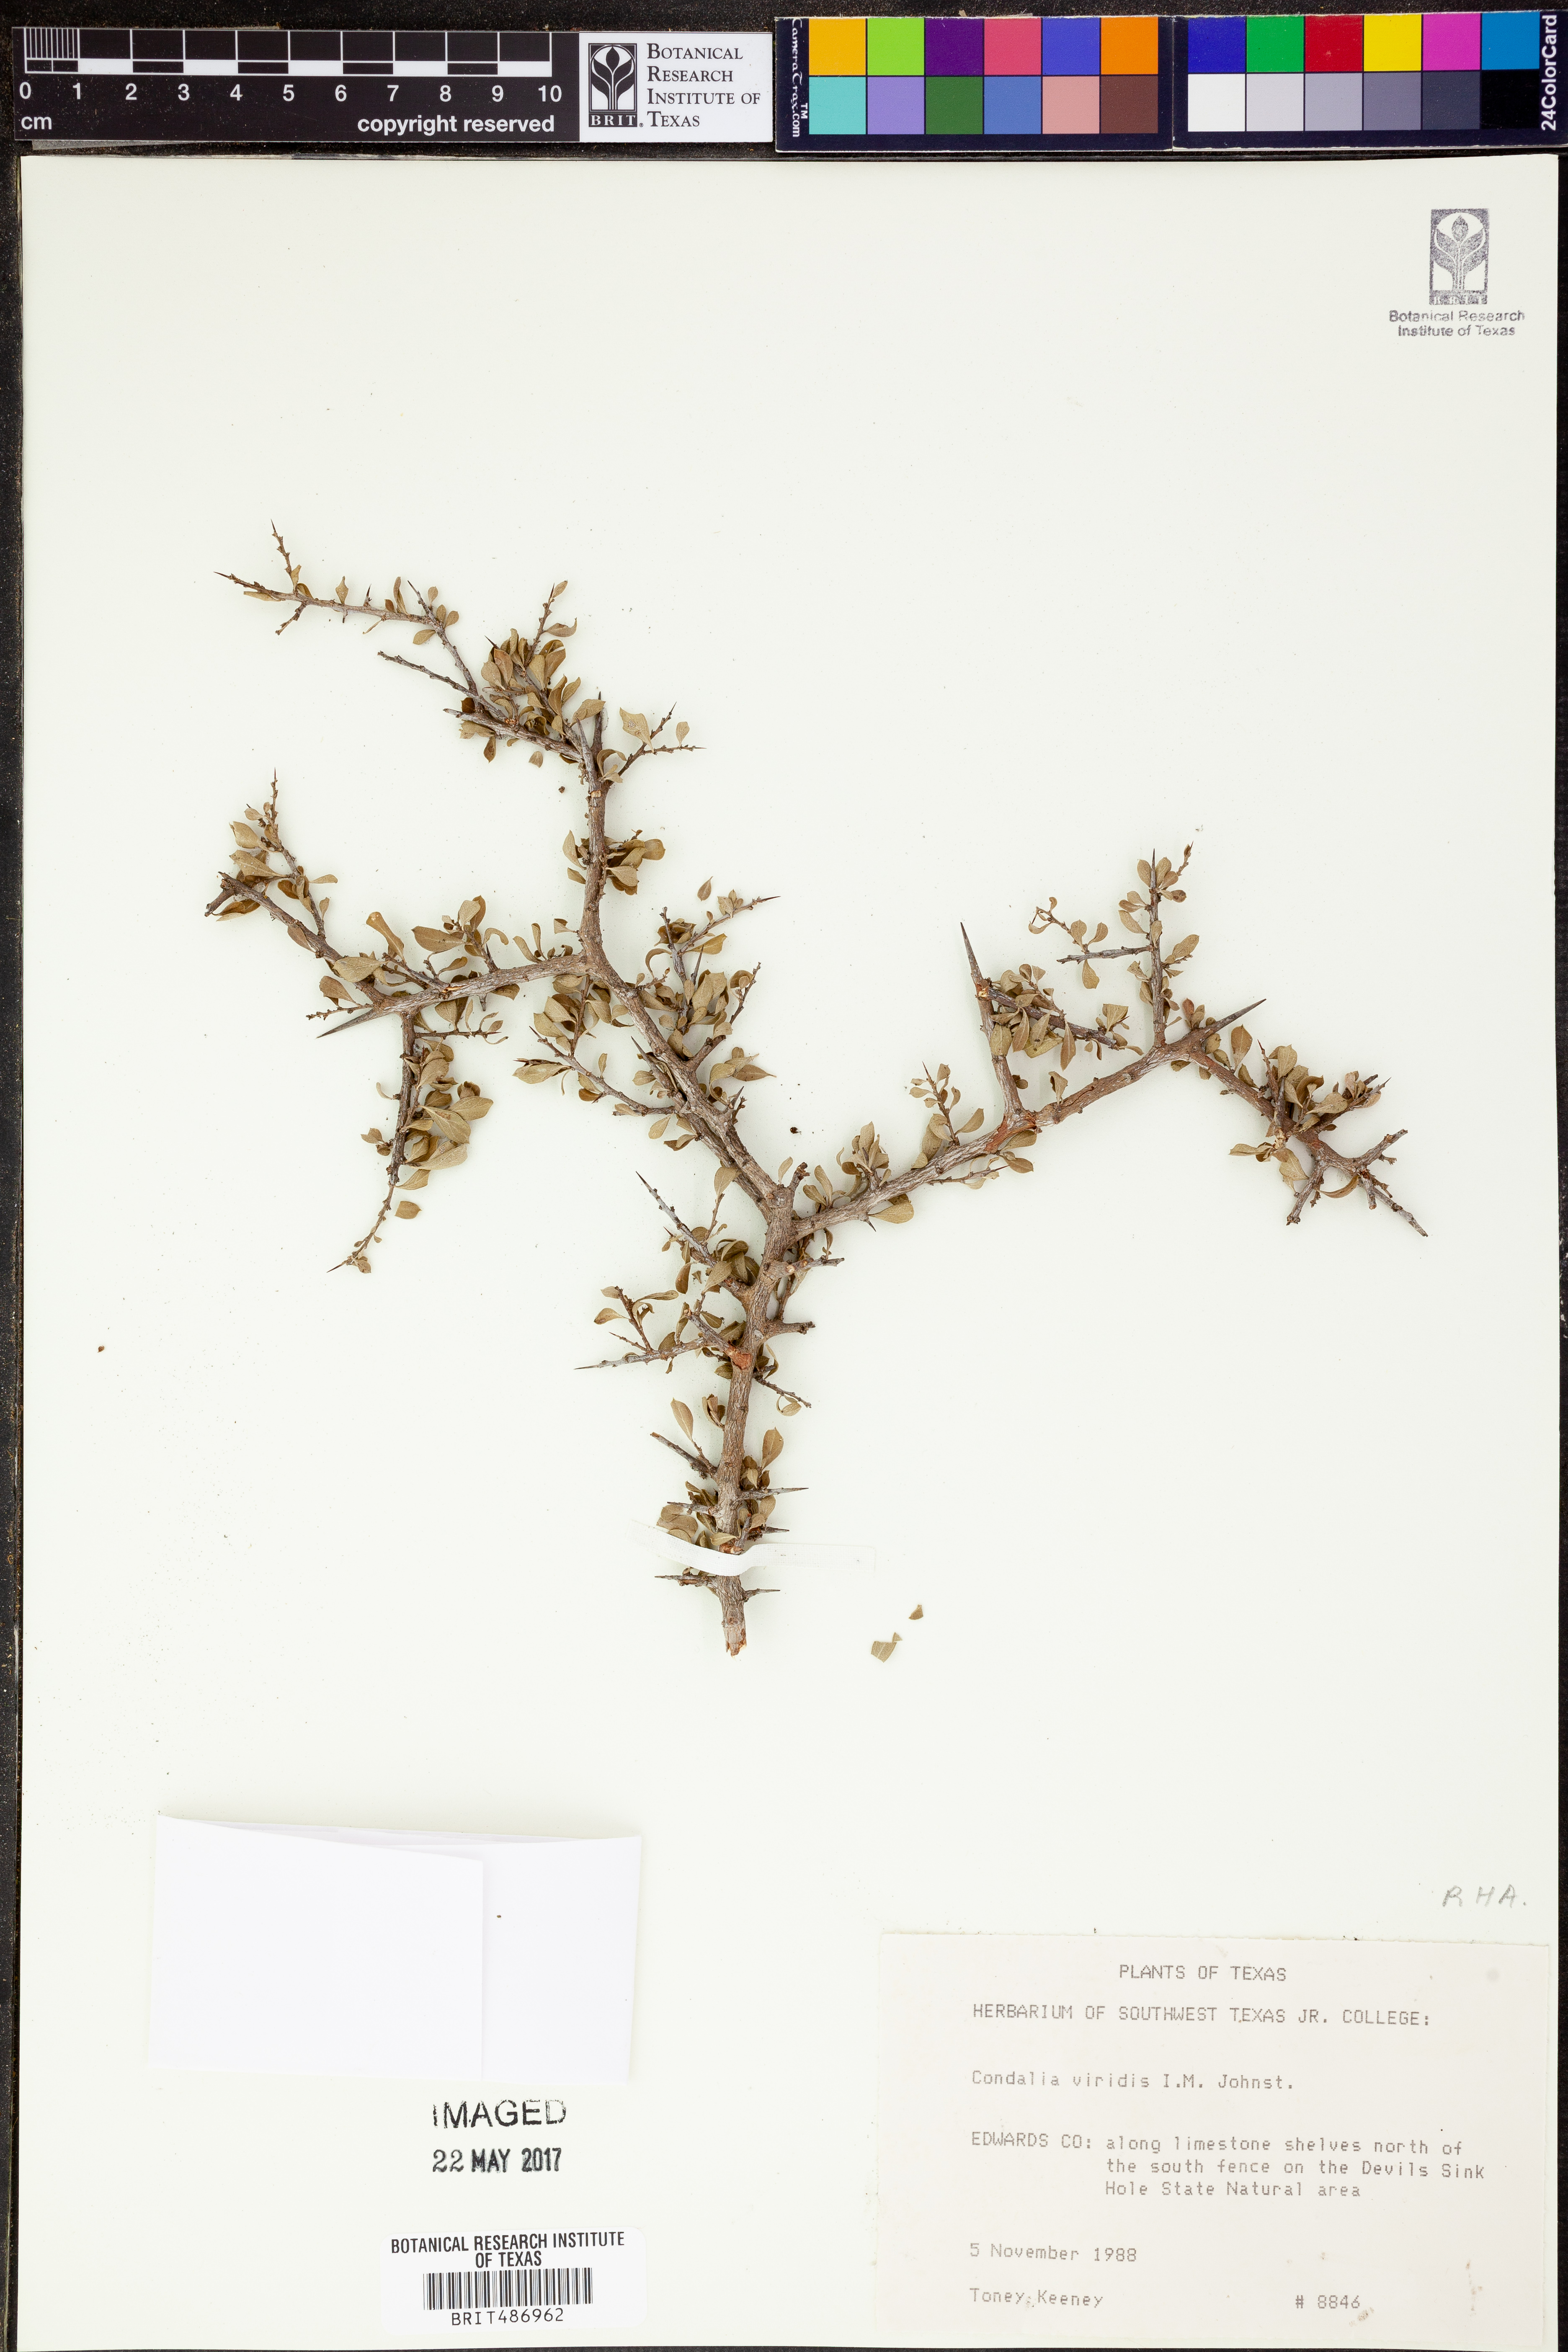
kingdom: Plantae
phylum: Tracheophyta
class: Magnoliopsida
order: Rosales
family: Rhamnaceae
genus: Condalia
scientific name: Condalia viridis
